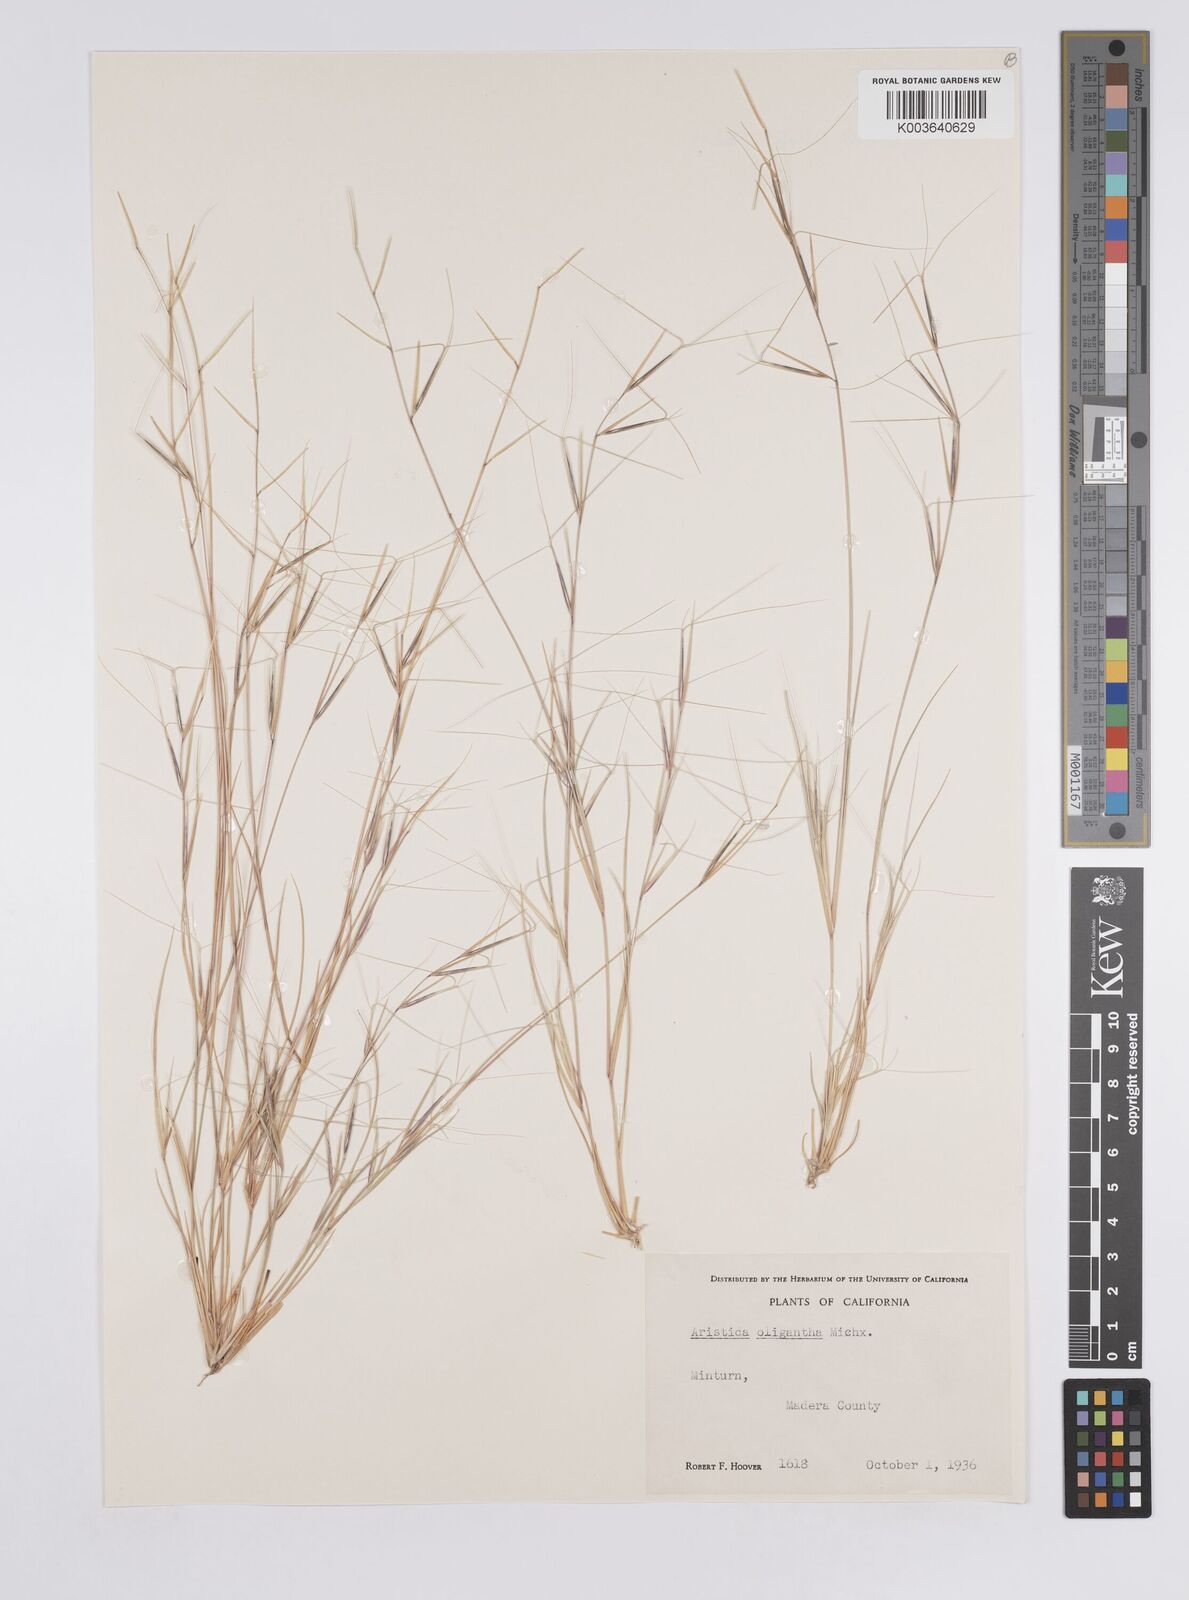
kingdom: Plantae
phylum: Tracheophyta
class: Liliopsida
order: Poales
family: Poaceae
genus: Aristida
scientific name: Aristida oligantha
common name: Few-flowered aristida
